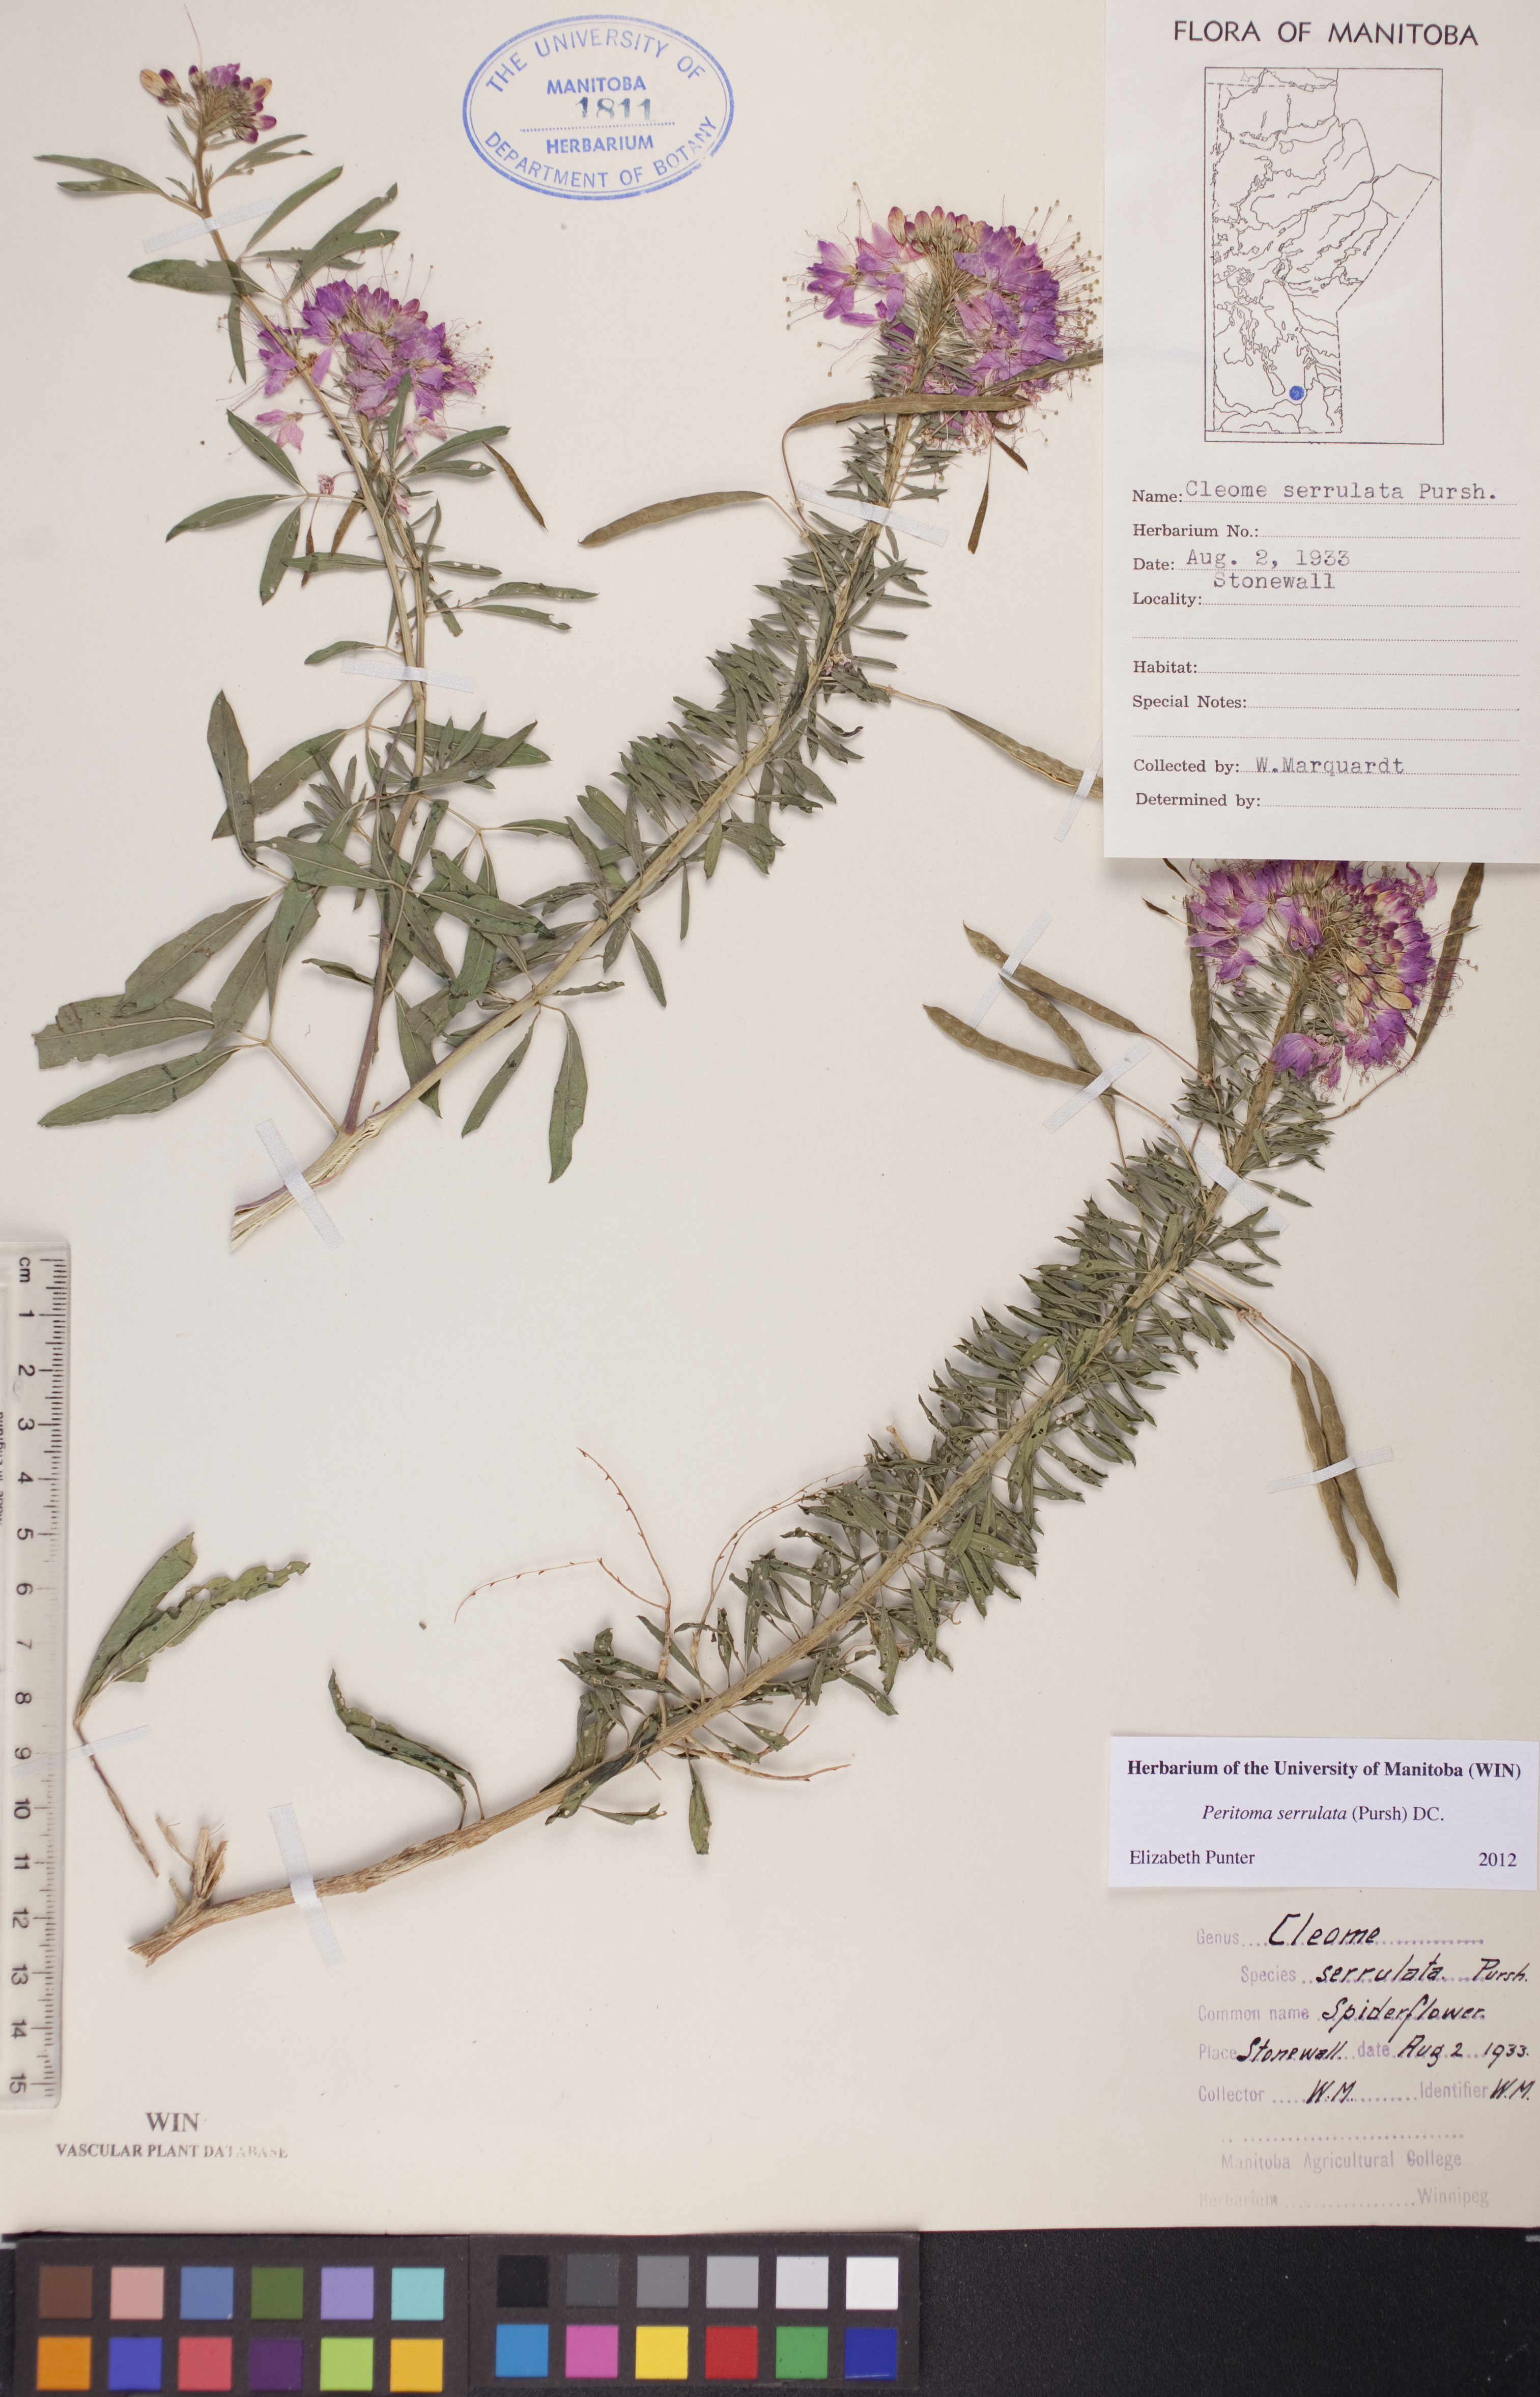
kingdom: Plantae
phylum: Tracheophyta
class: Magnoliopsida
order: Brassicales
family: Cleomaceae
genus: Cleomella
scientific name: Cleomella serrulata
